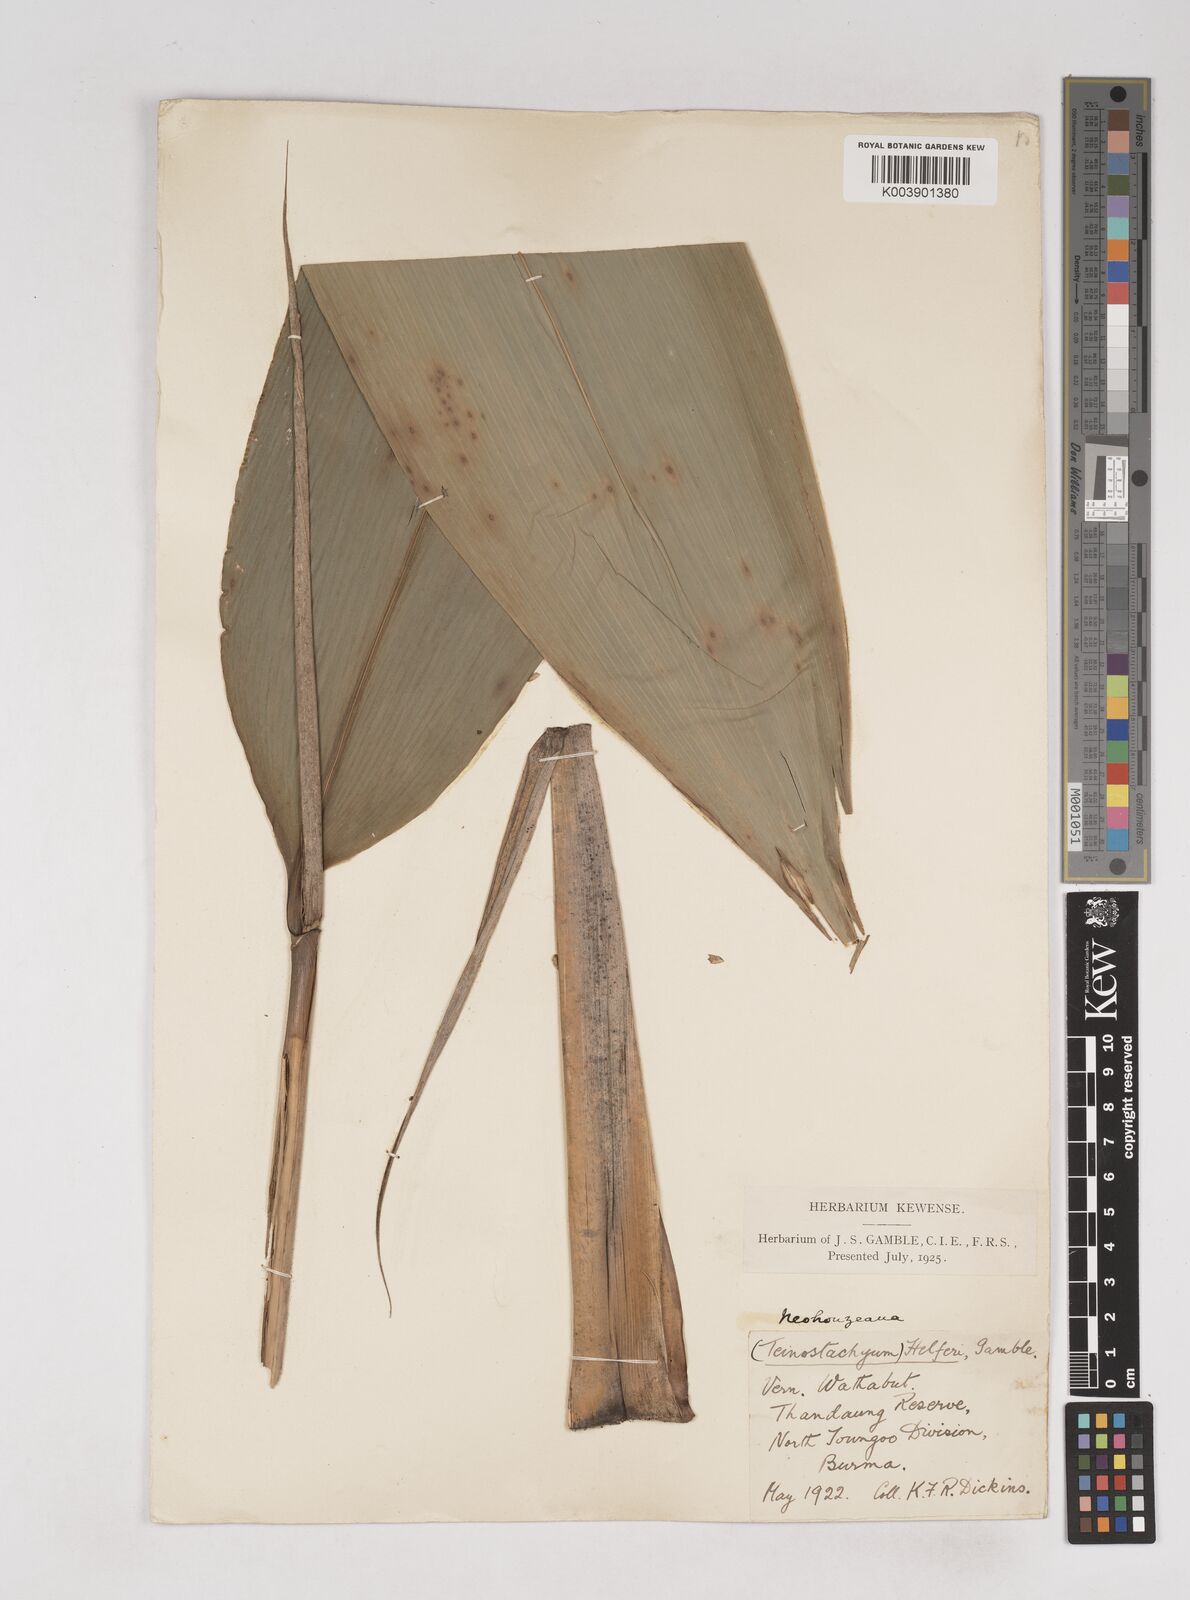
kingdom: Plantae
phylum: Tracheophyta
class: Liliopsida
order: Poales
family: Poaceae
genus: Schizostachyum
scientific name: Schizostachyum helferi
